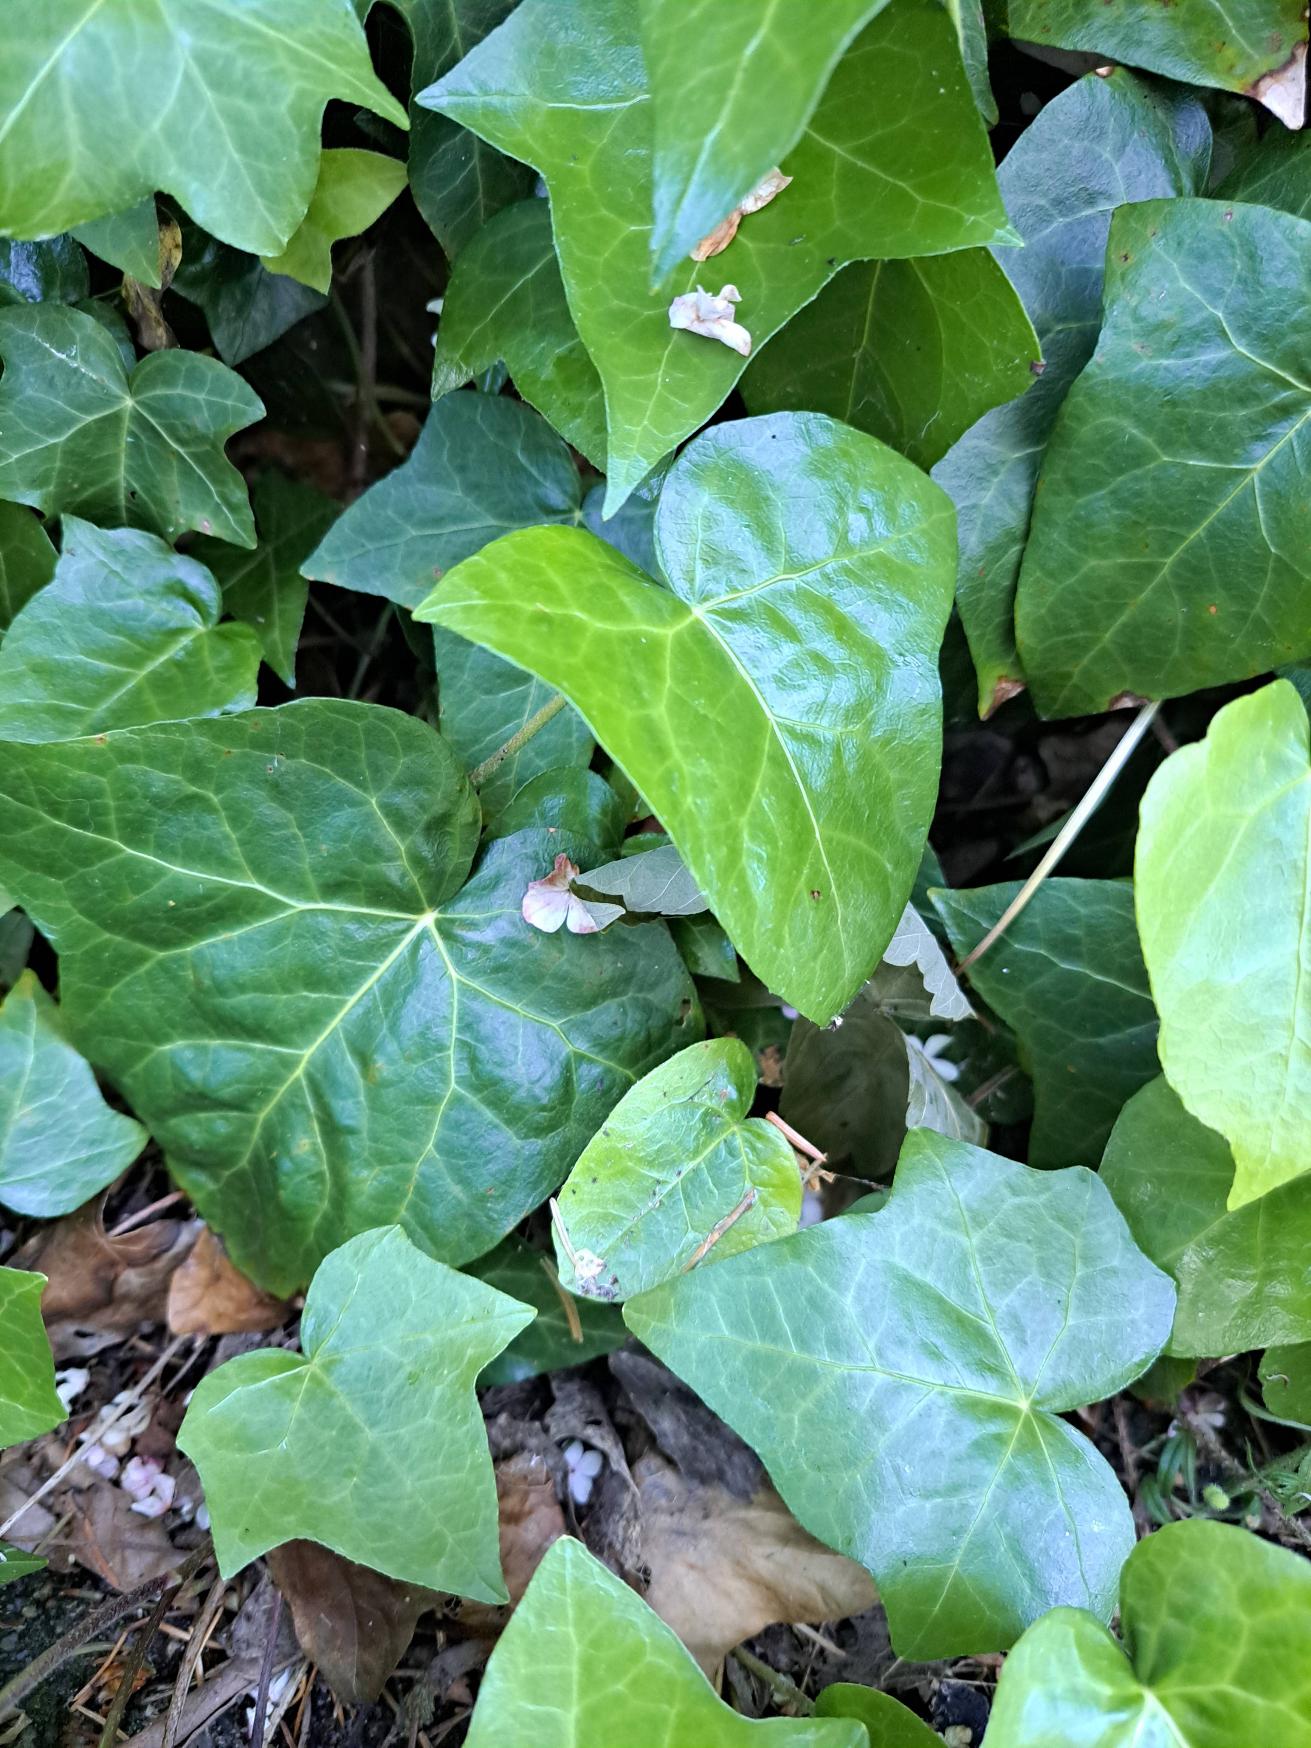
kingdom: Plantae
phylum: Tracheophyta
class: Magnoliopsida
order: Apiales
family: Araliaceae
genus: Hedera
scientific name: Hedera helix
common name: Vedbend
